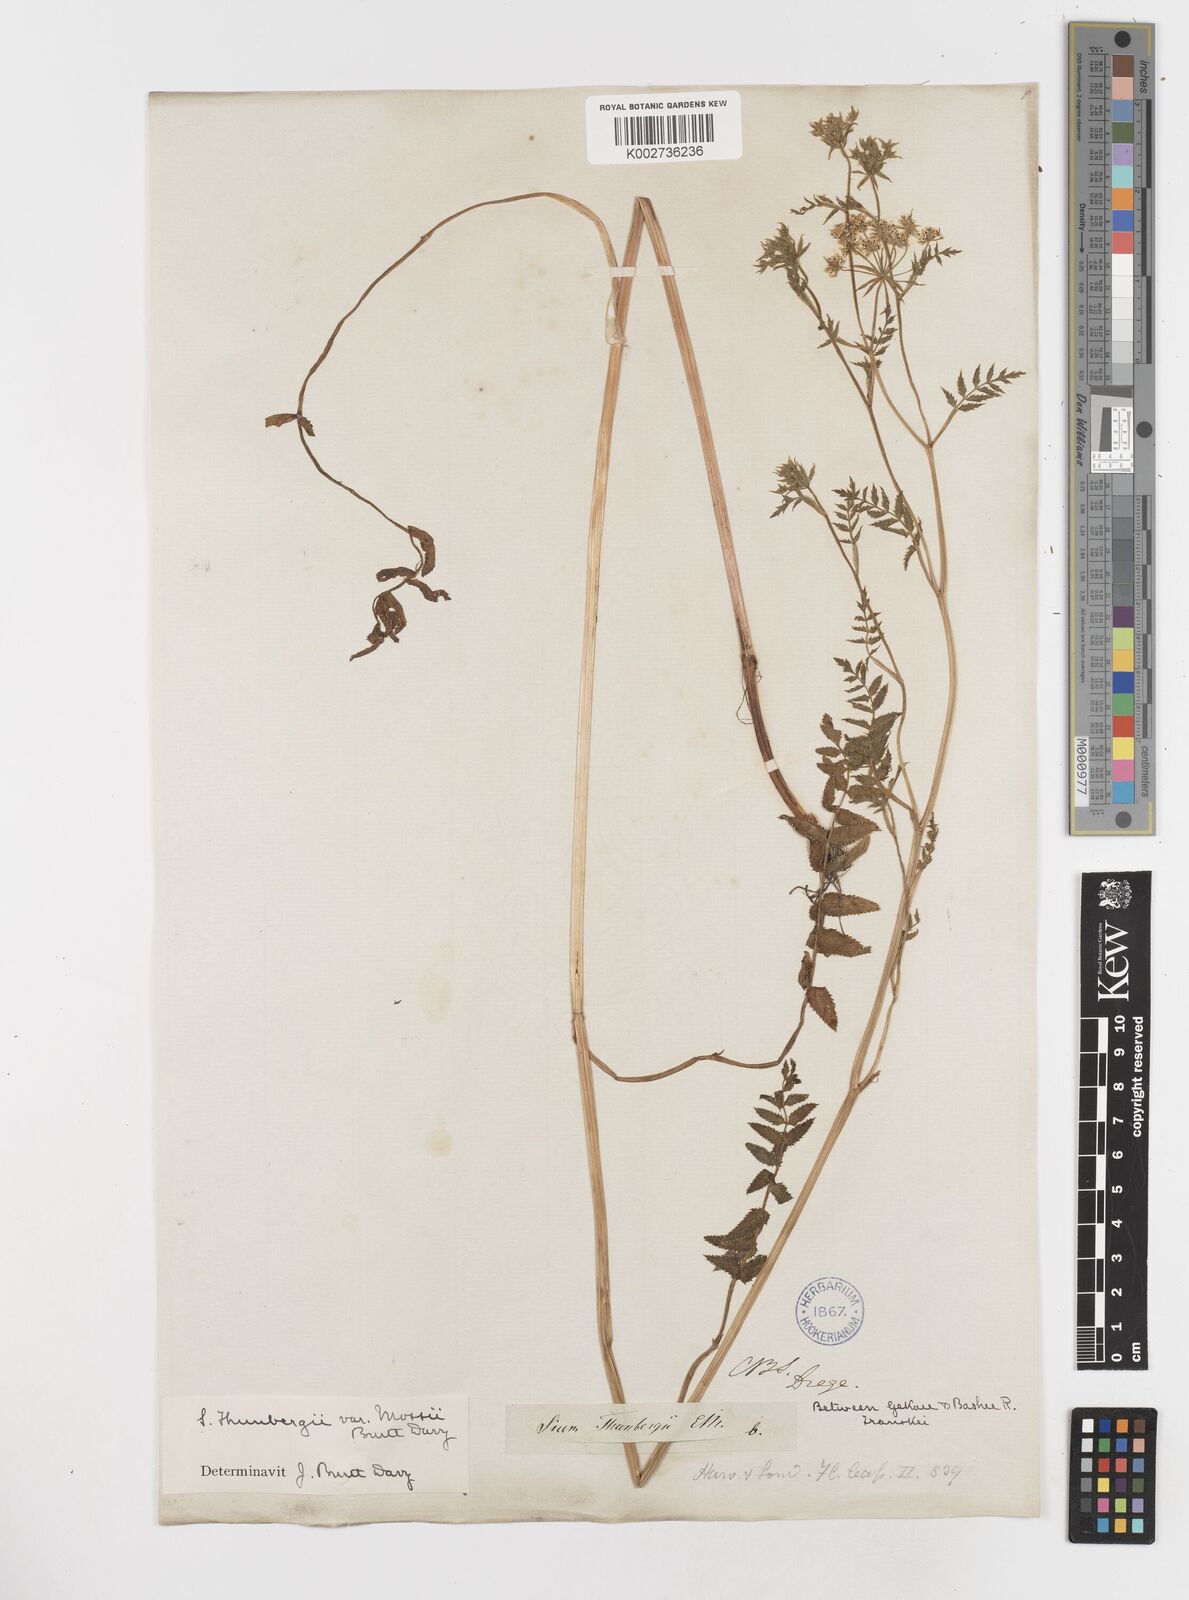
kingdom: Plantae
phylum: Tracheophyta
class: Magnoliopsida
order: Apiales
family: Apiaceae
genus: Berula
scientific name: Berula erecta
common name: Lesser water-parsnip
